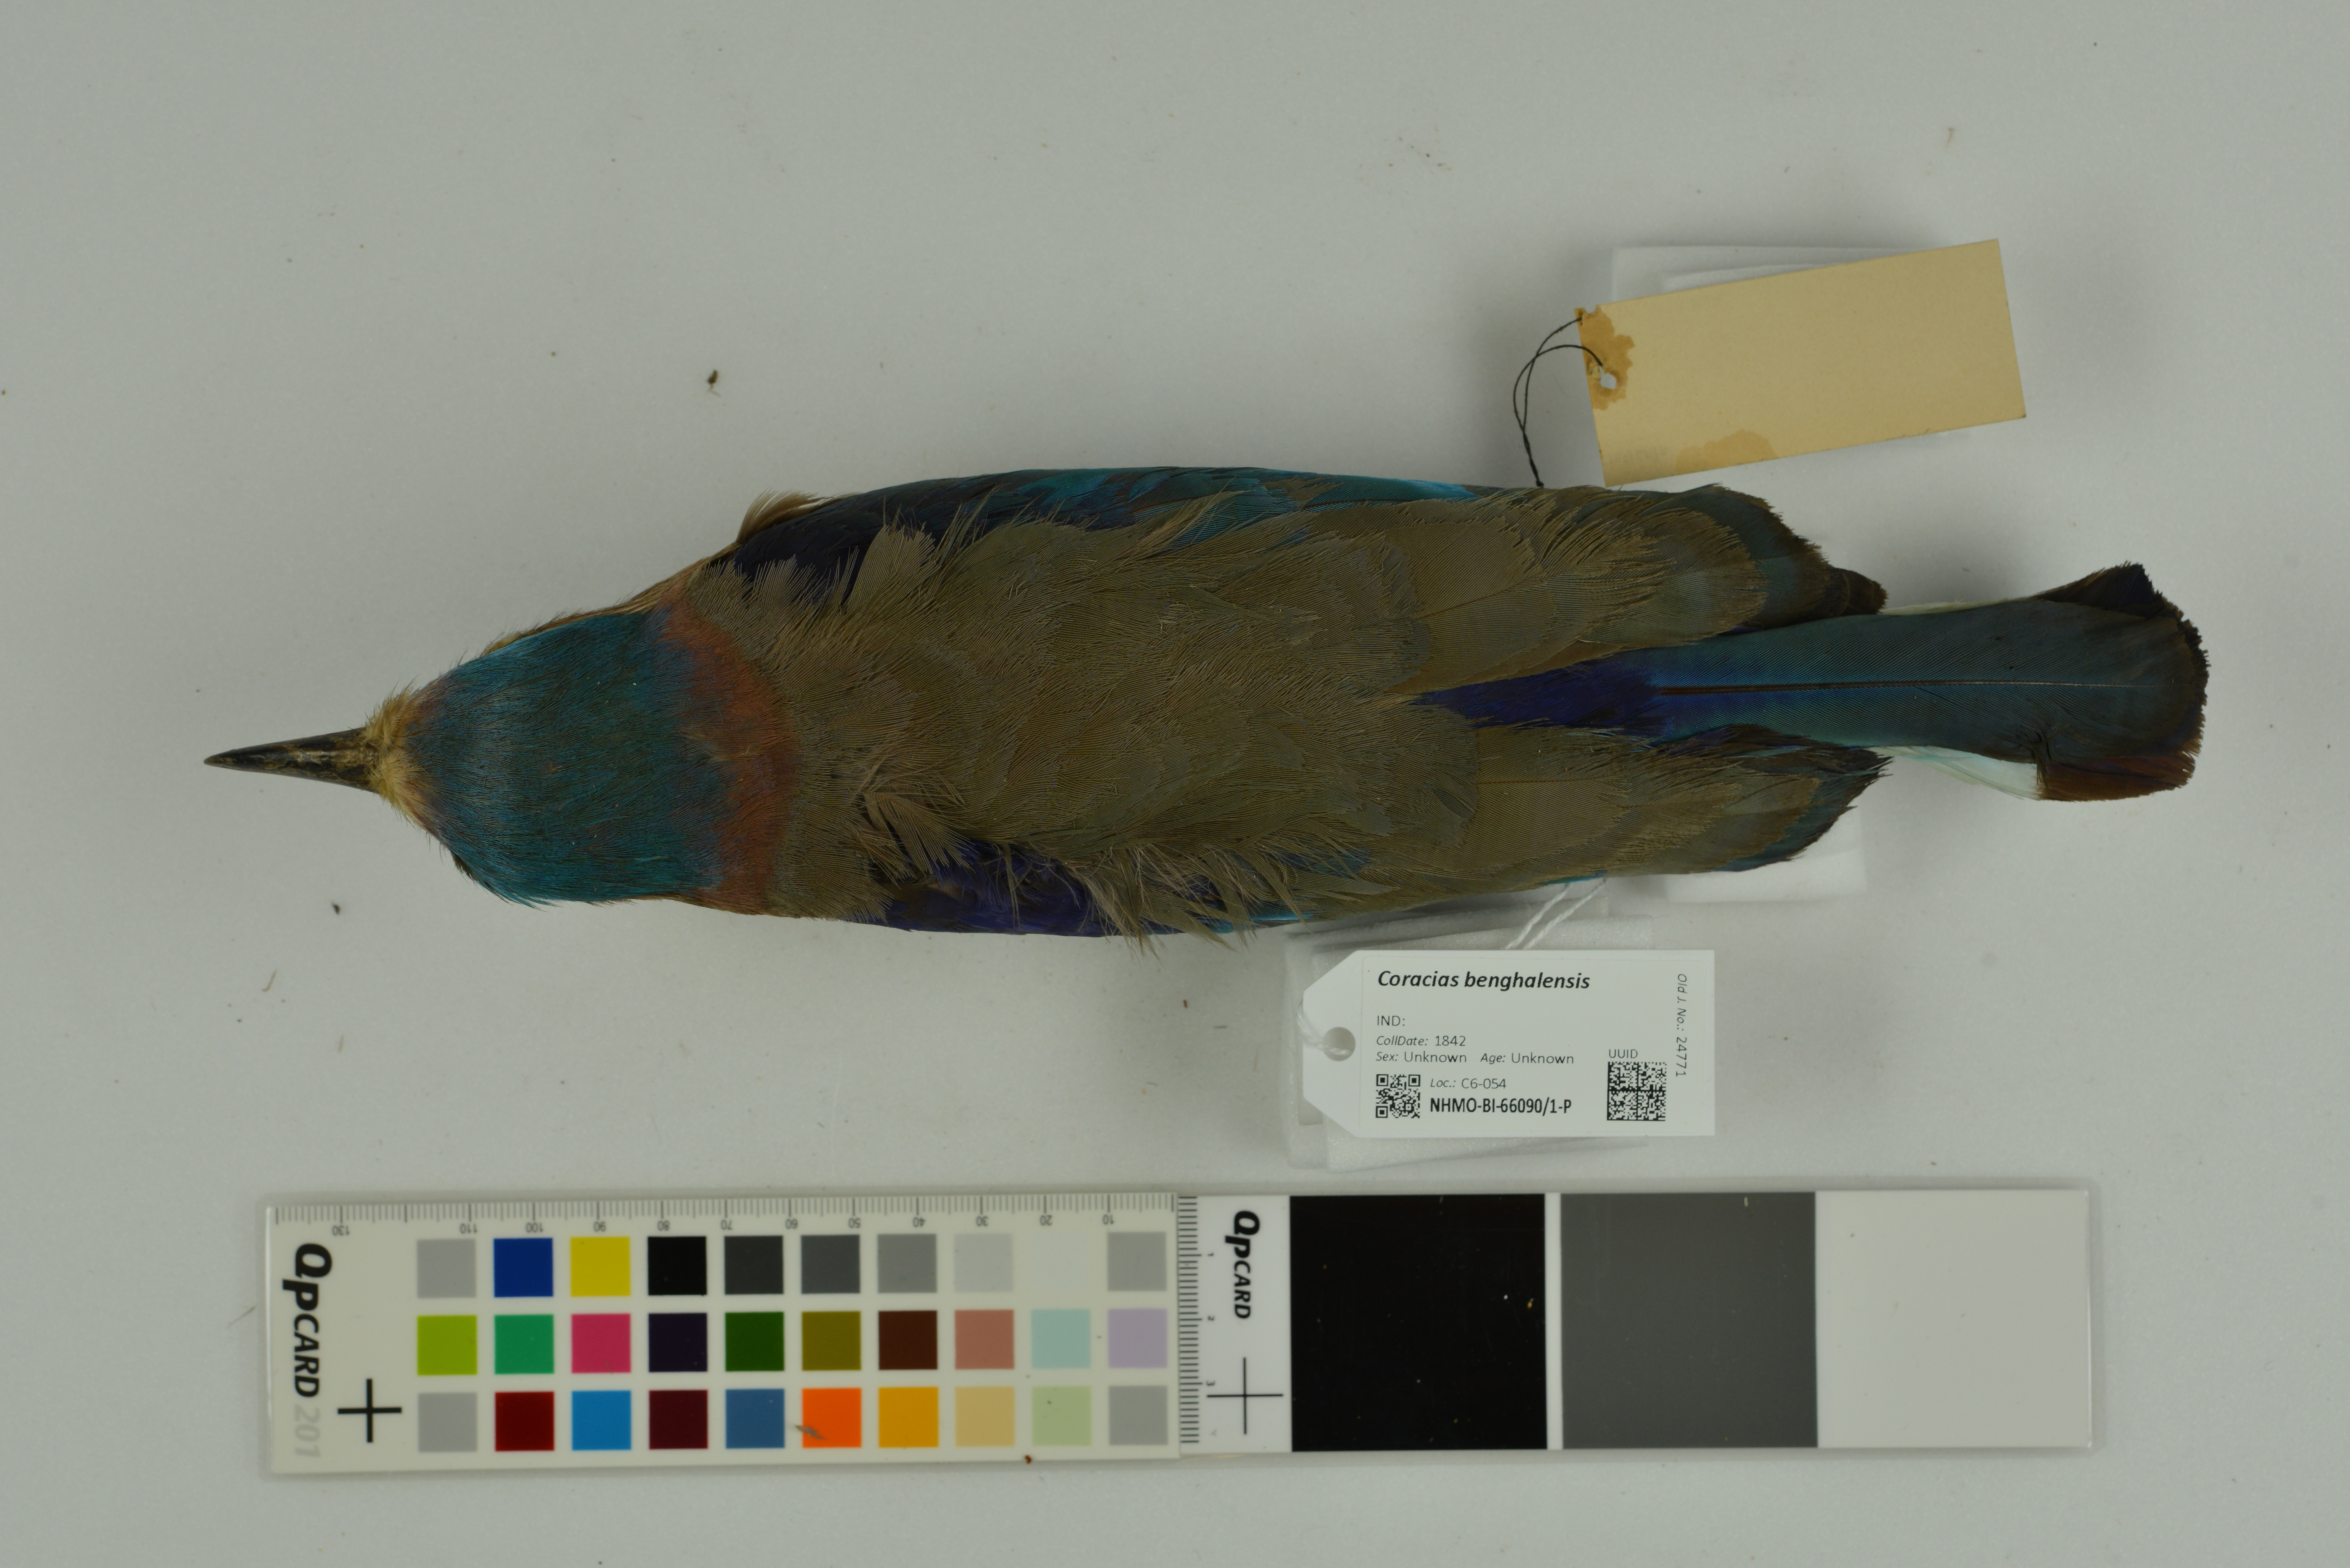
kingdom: Animalia
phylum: Chordata
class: Aves
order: Coraciiformes
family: Coraciidae
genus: Coracias
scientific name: Coracias benghalensis
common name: Indian roller
